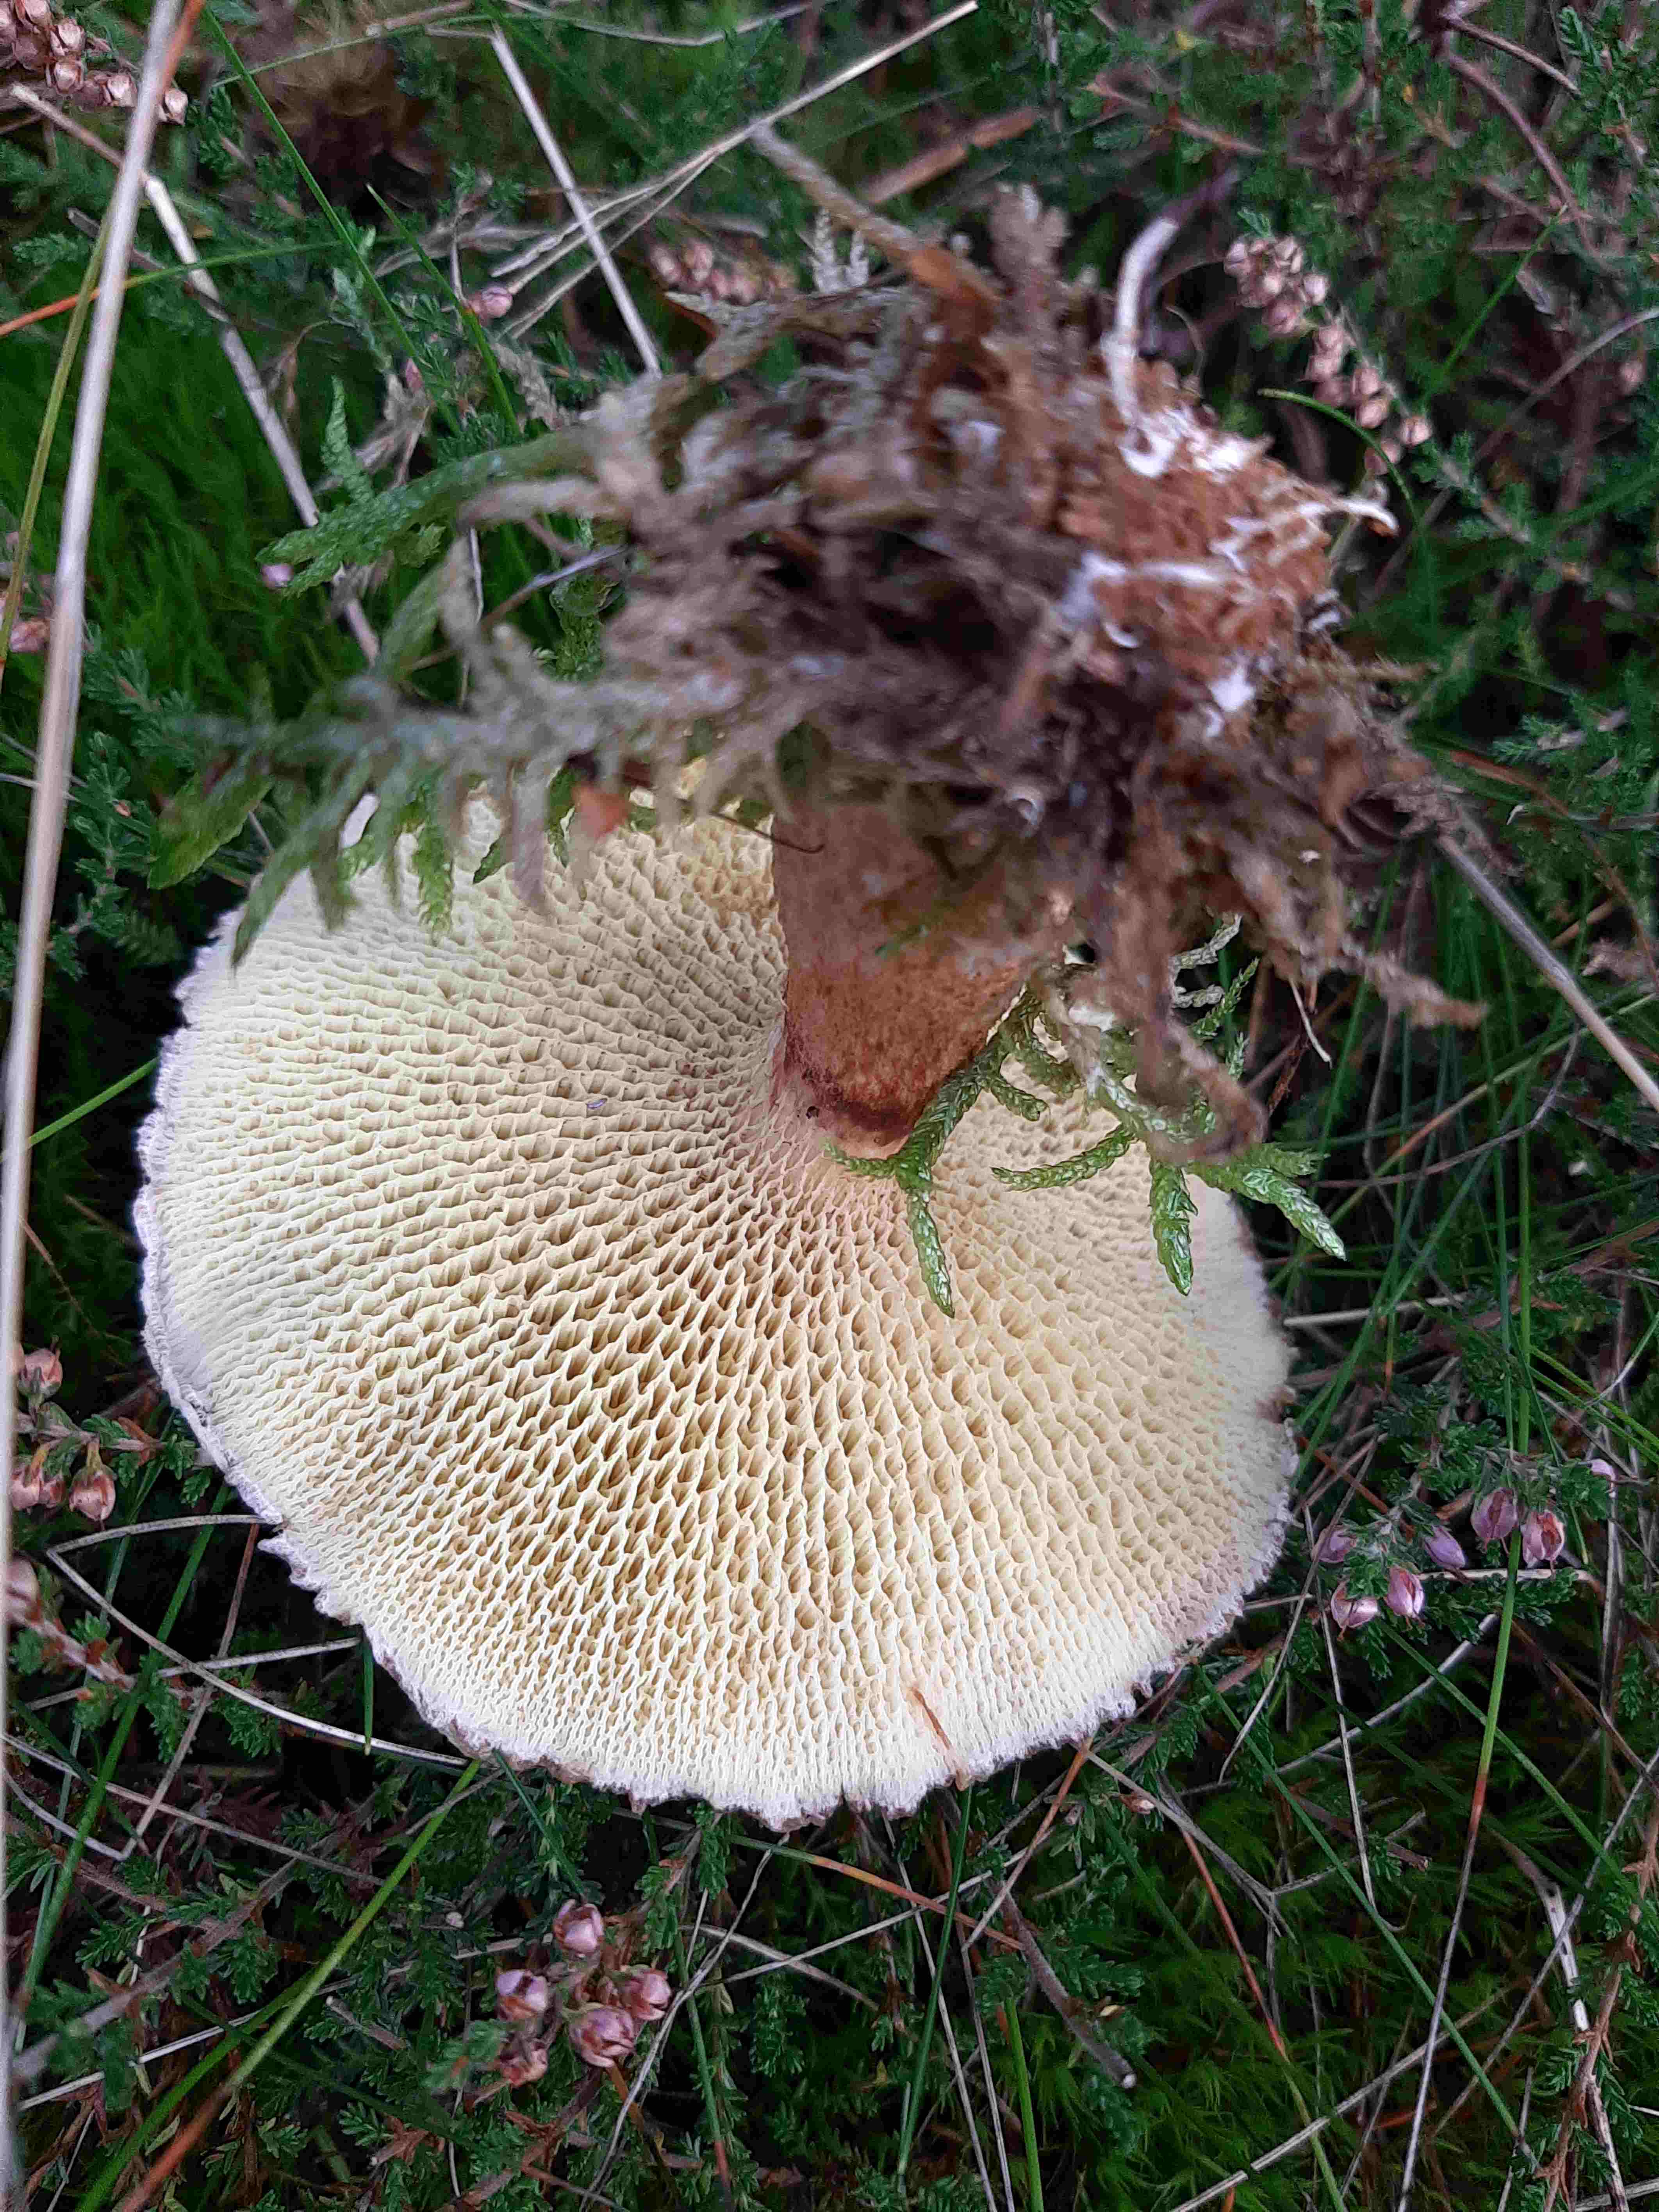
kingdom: Fungi
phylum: Basidiomycota
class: Agaricomycetes
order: Boletales
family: Suillaceae
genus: Suillus
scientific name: Suillus cavipes
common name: hulstokket slimrørhat
